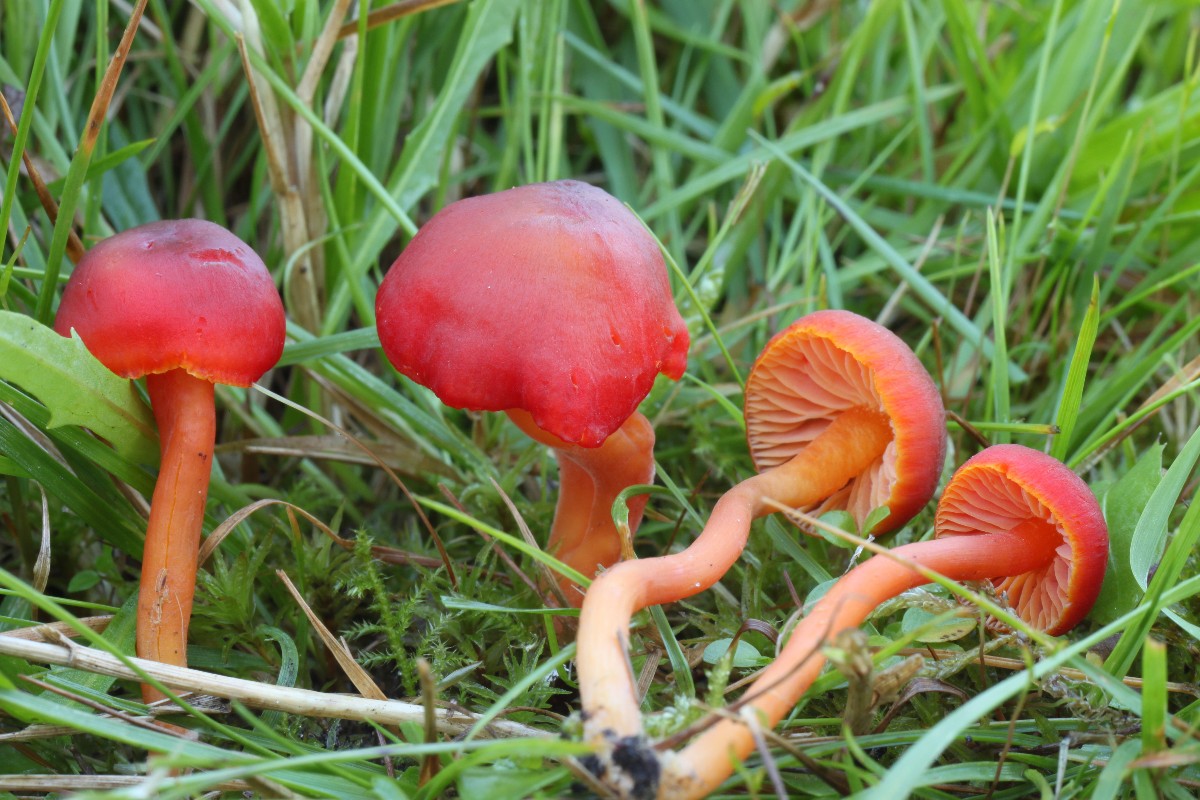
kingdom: Fungi
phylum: Basidiomycota
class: Agaricomycetes
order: Agaricales
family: Hygrophoraceae
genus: Hygrocybe
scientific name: Hygrocybe phaeococcinea
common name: sortdugget vokshat
